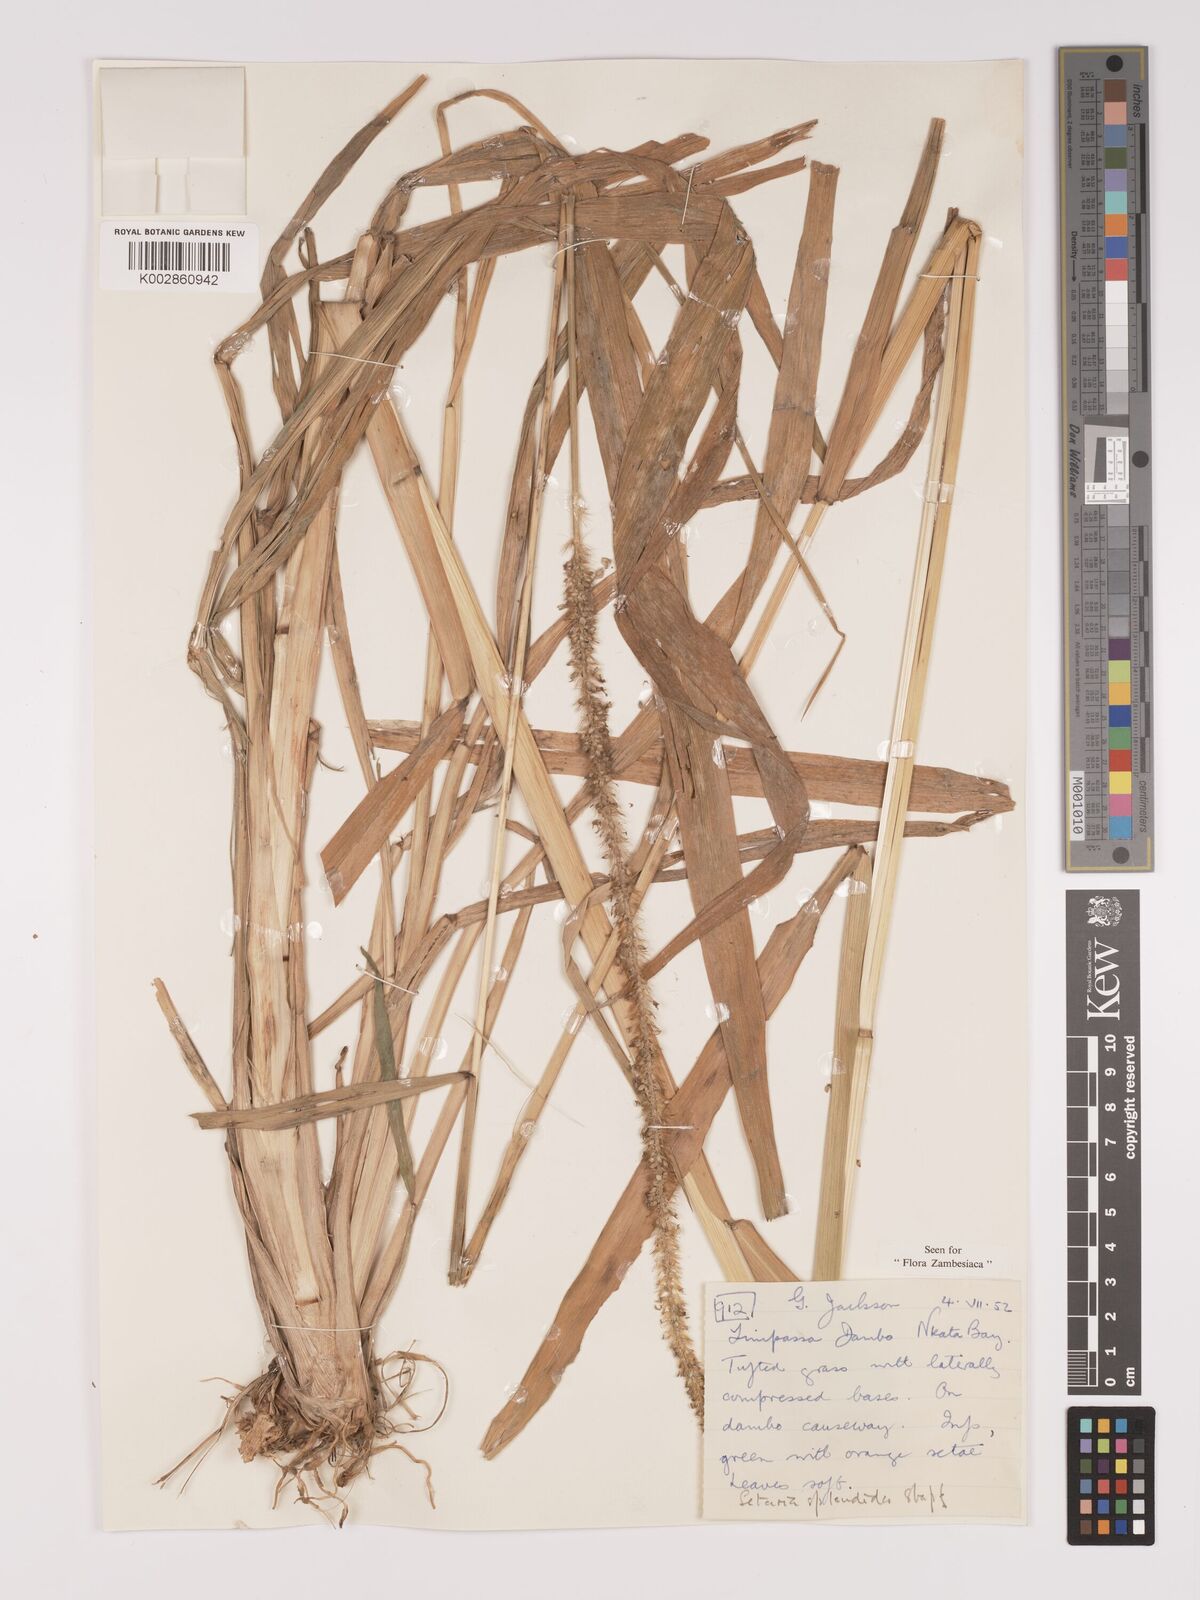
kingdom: Plantae
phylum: Tracheophyta
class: Liliopsida
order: Poales
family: Poaceae
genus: Setaria
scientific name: Setaria sphacelata
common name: African bristlegrass
